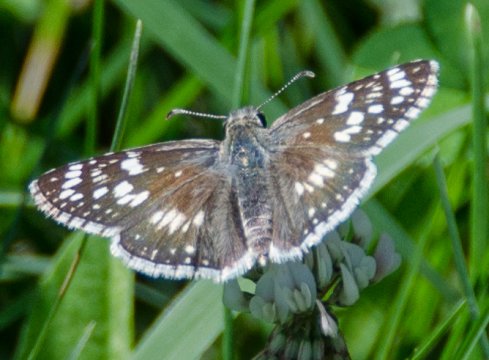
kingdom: Animalia
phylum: Arthropoda
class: Insecta
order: Lepidoptera
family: Hesperiidae
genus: Pyrgus
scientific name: Pyrgus communis
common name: Common Checkered-Skipper
